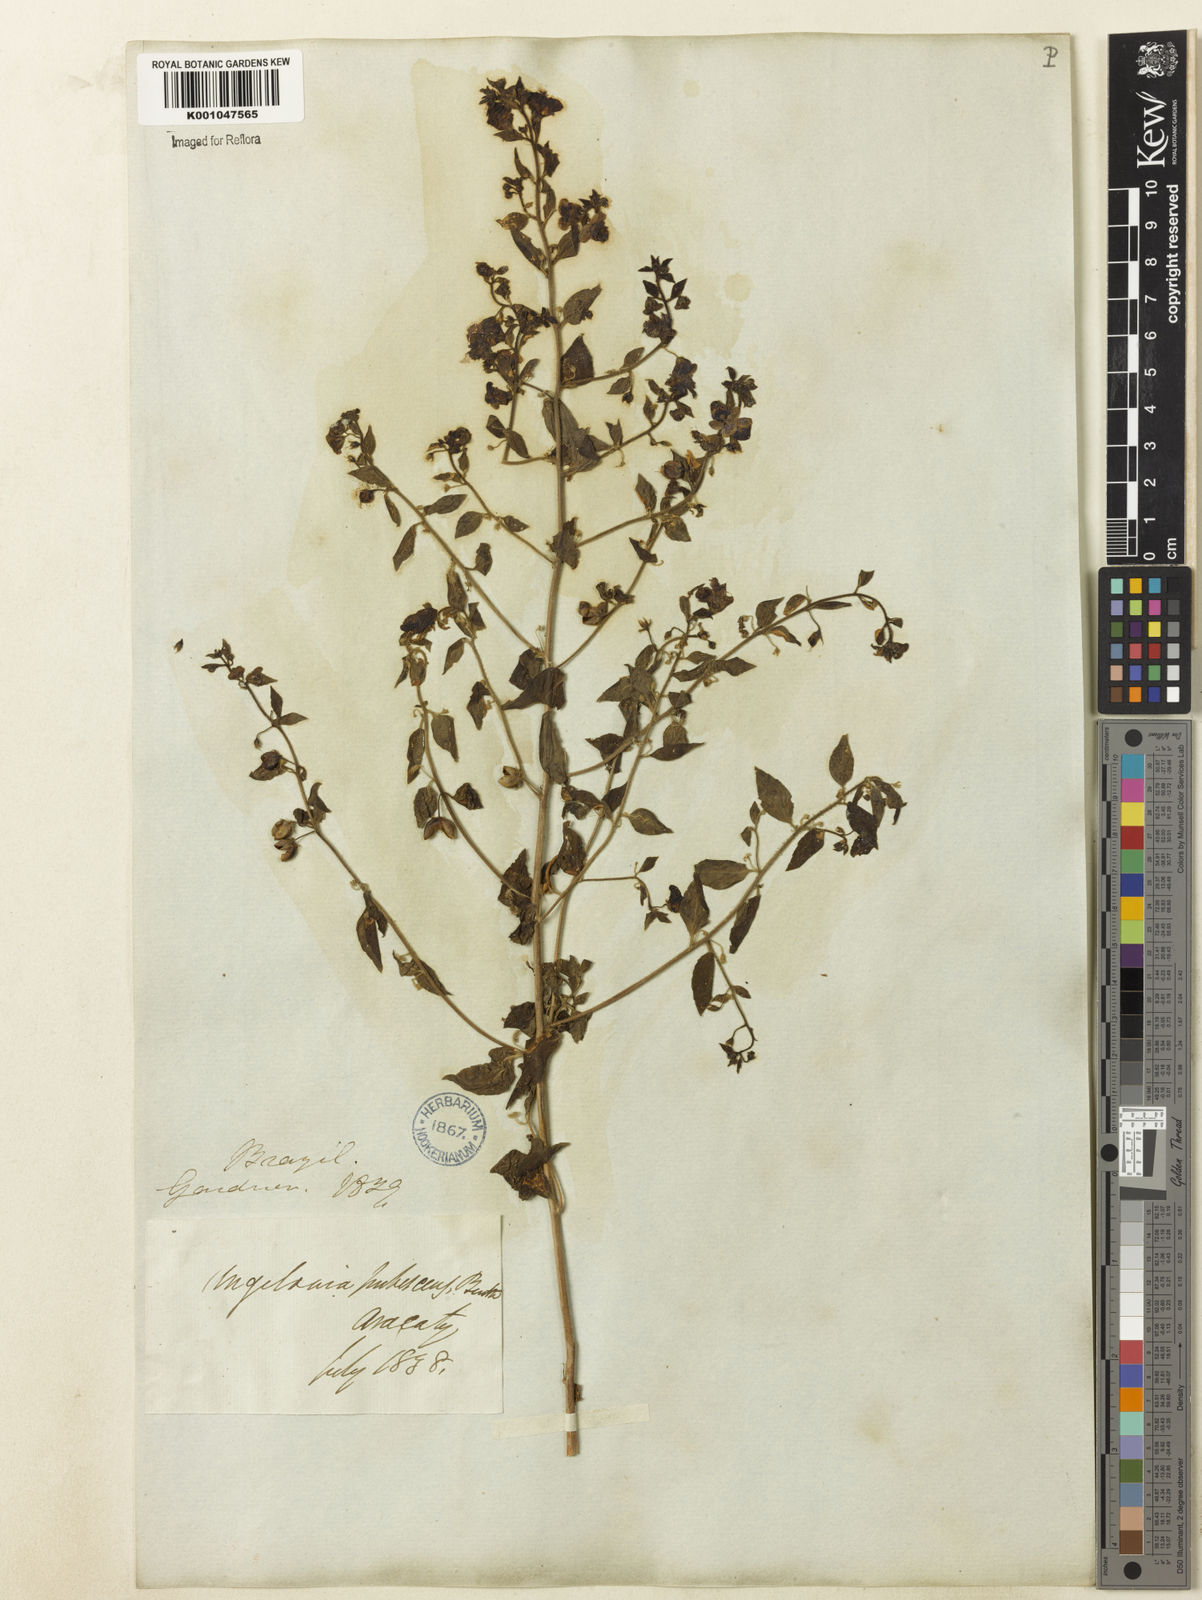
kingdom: Plantae
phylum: Tracheophyta
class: Magnoliopsida
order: Lamiales
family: Plantaginaceae
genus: Angelonia
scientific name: Angelonia pubescens
